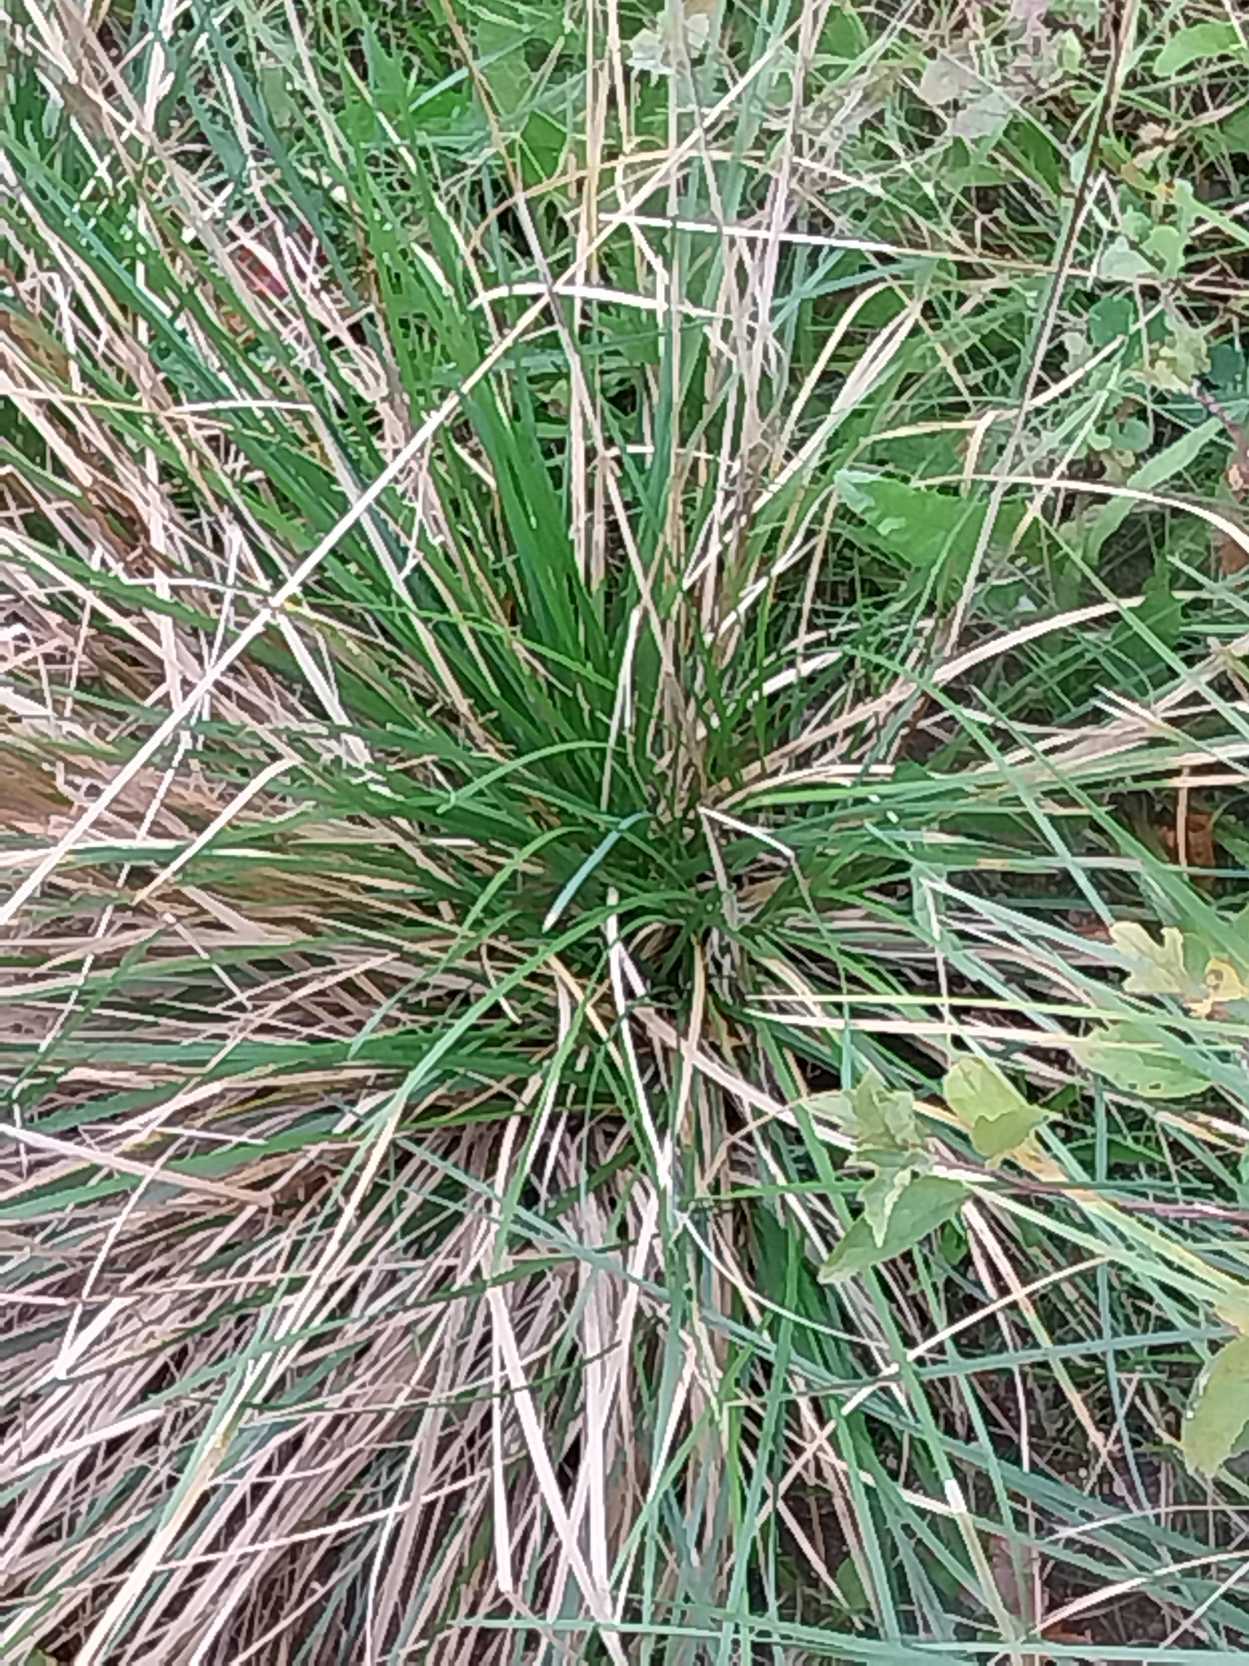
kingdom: Plantae
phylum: Tracheophyta
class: Liliopsida
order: Poales
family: Poaceae
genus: Deschampsia
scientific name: Deschampsia cespitosa
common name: Mose-bunke
